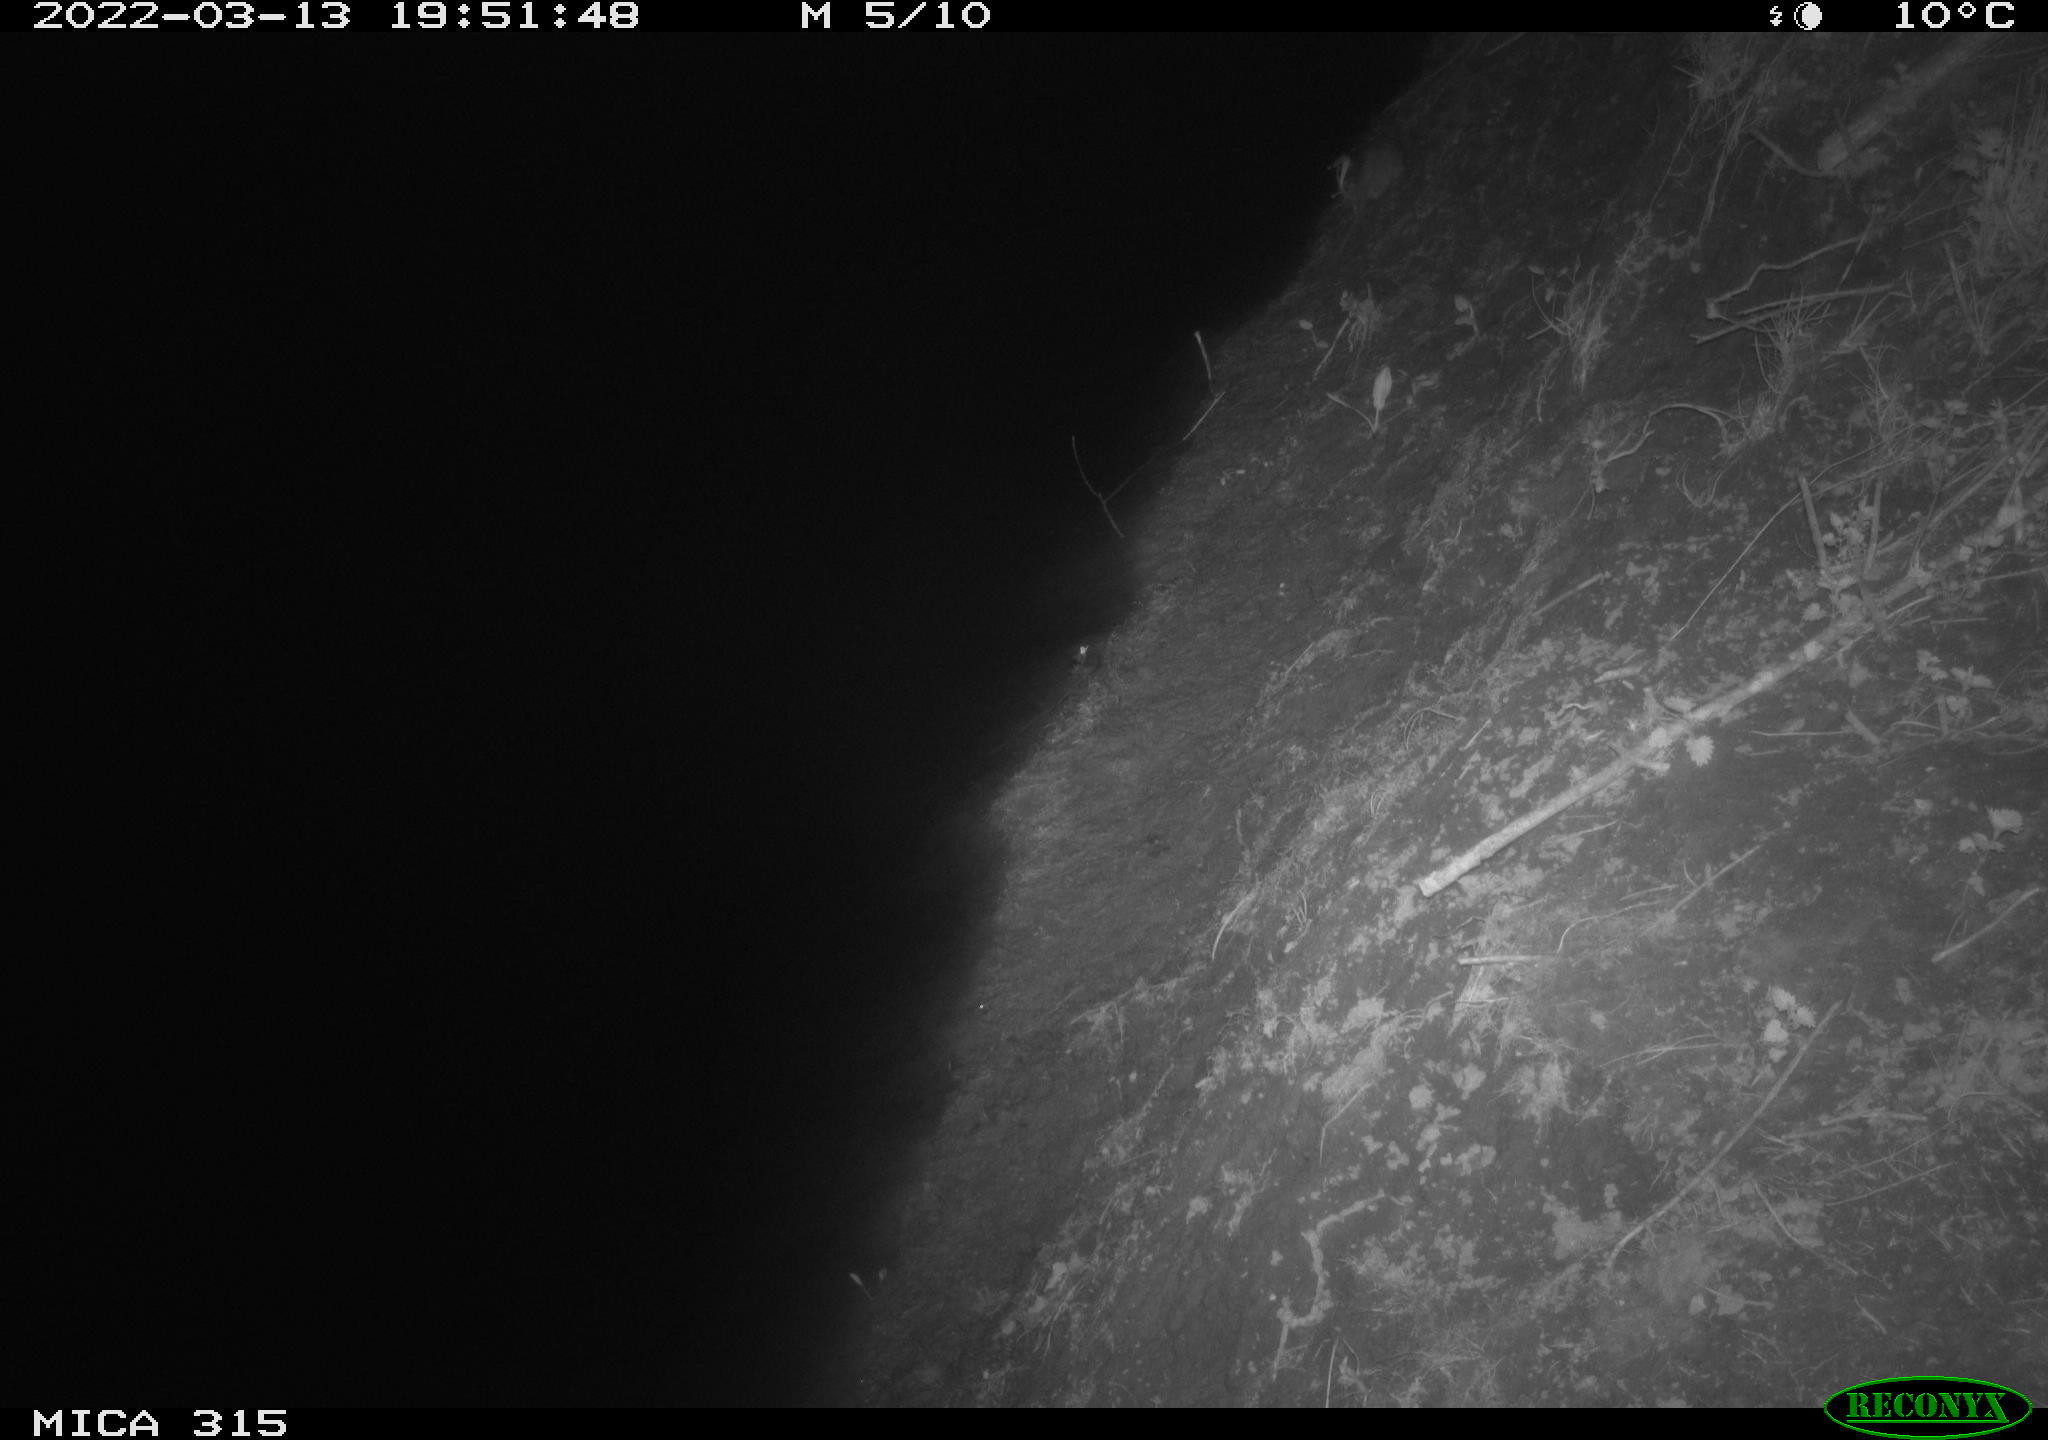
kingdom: Animalia
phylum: Chordata
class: Mammalia
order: Rodentia
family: Muridae
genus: Rattus
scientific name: Rattus norvegicus
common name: Brown rat
